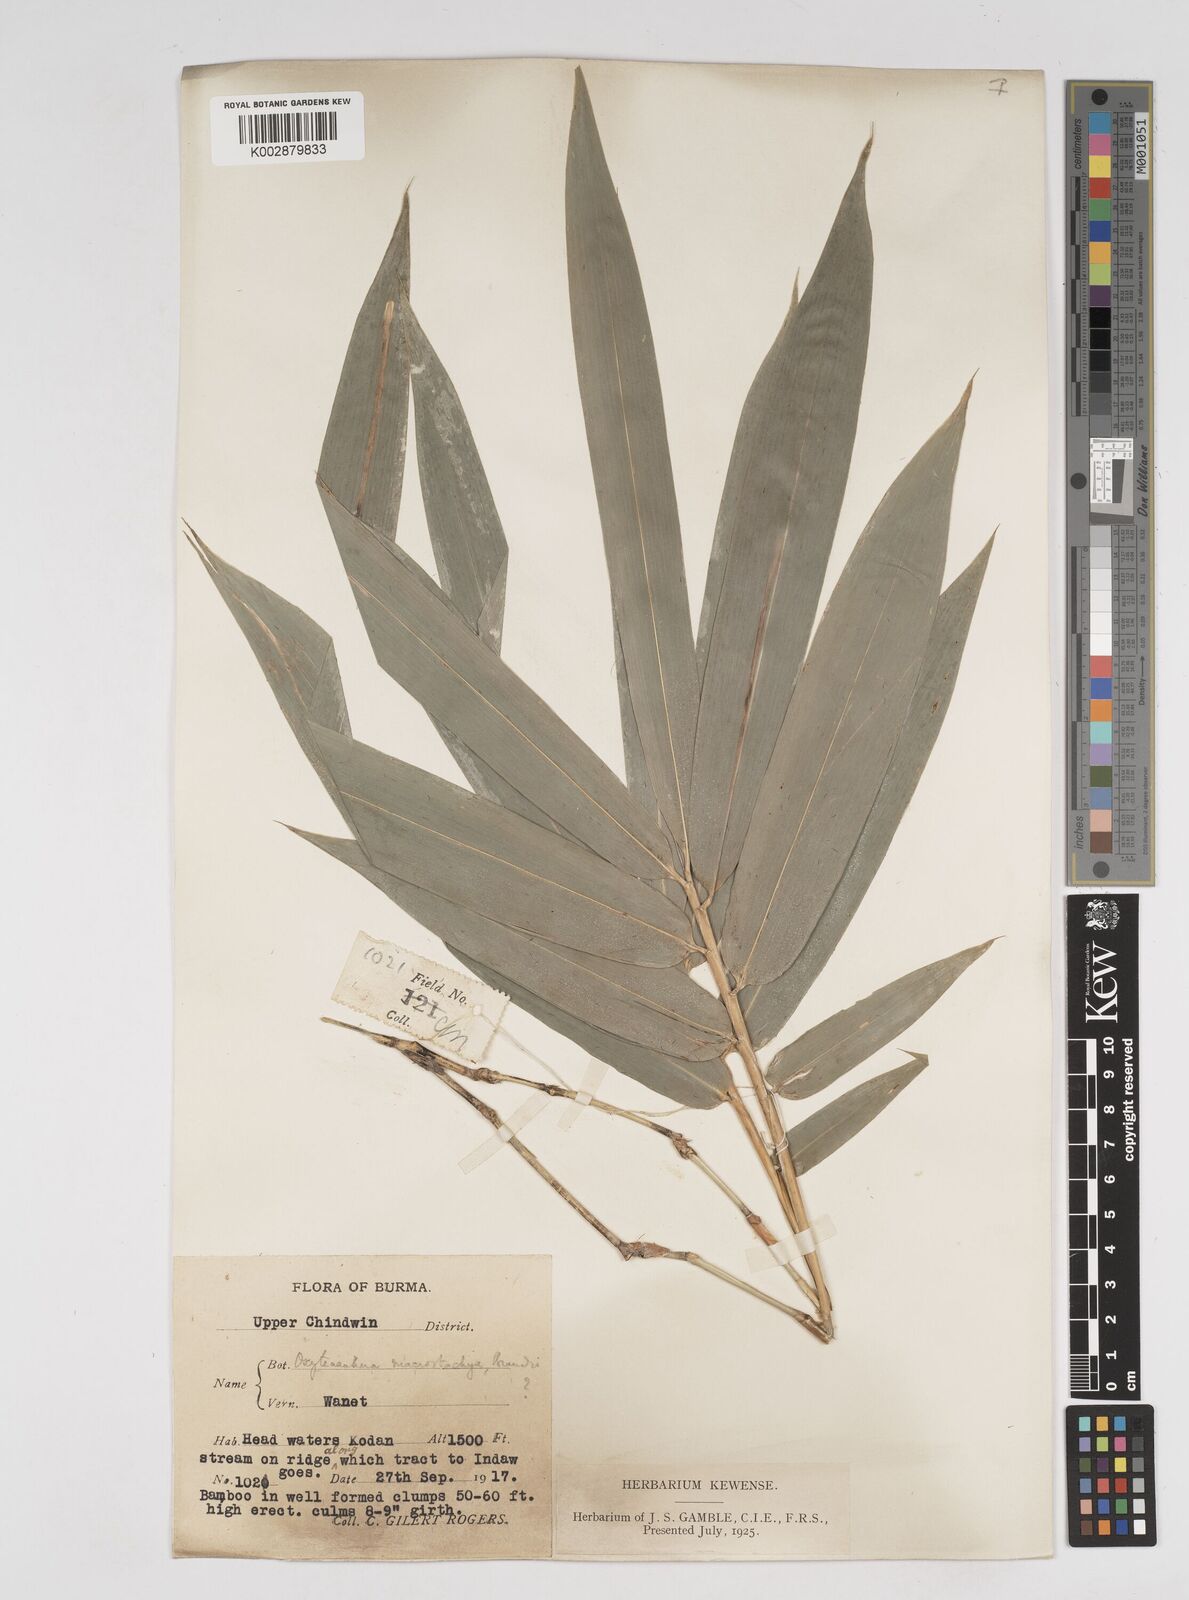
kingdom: Plantae
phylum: Tracheophyta
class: Liliopsida
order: Poales
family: Poaceae
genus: Gigantochloa
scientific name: Gigantochloa macrostachya
